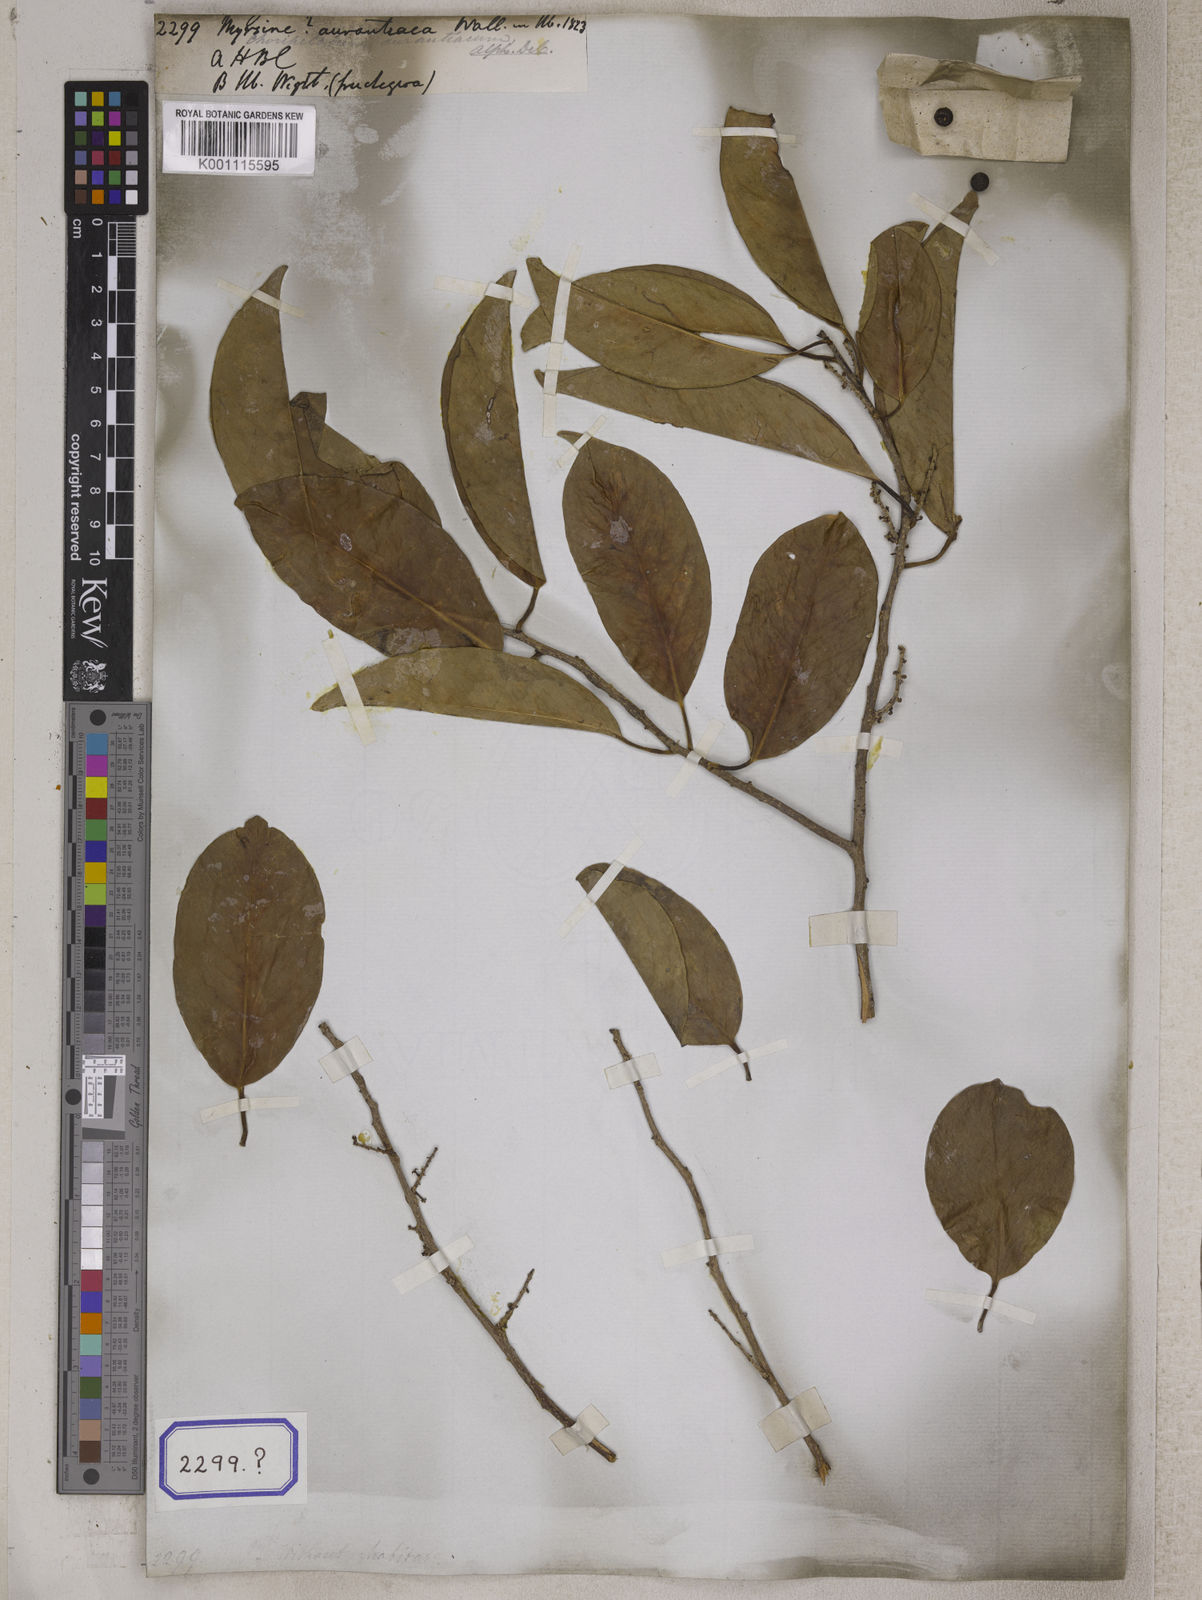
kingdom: Plantae
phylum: Tracheophyta
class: Magnoliopsida
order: Ericales
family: Primulaceae
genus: Embelia
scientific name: Embelia drupacea
